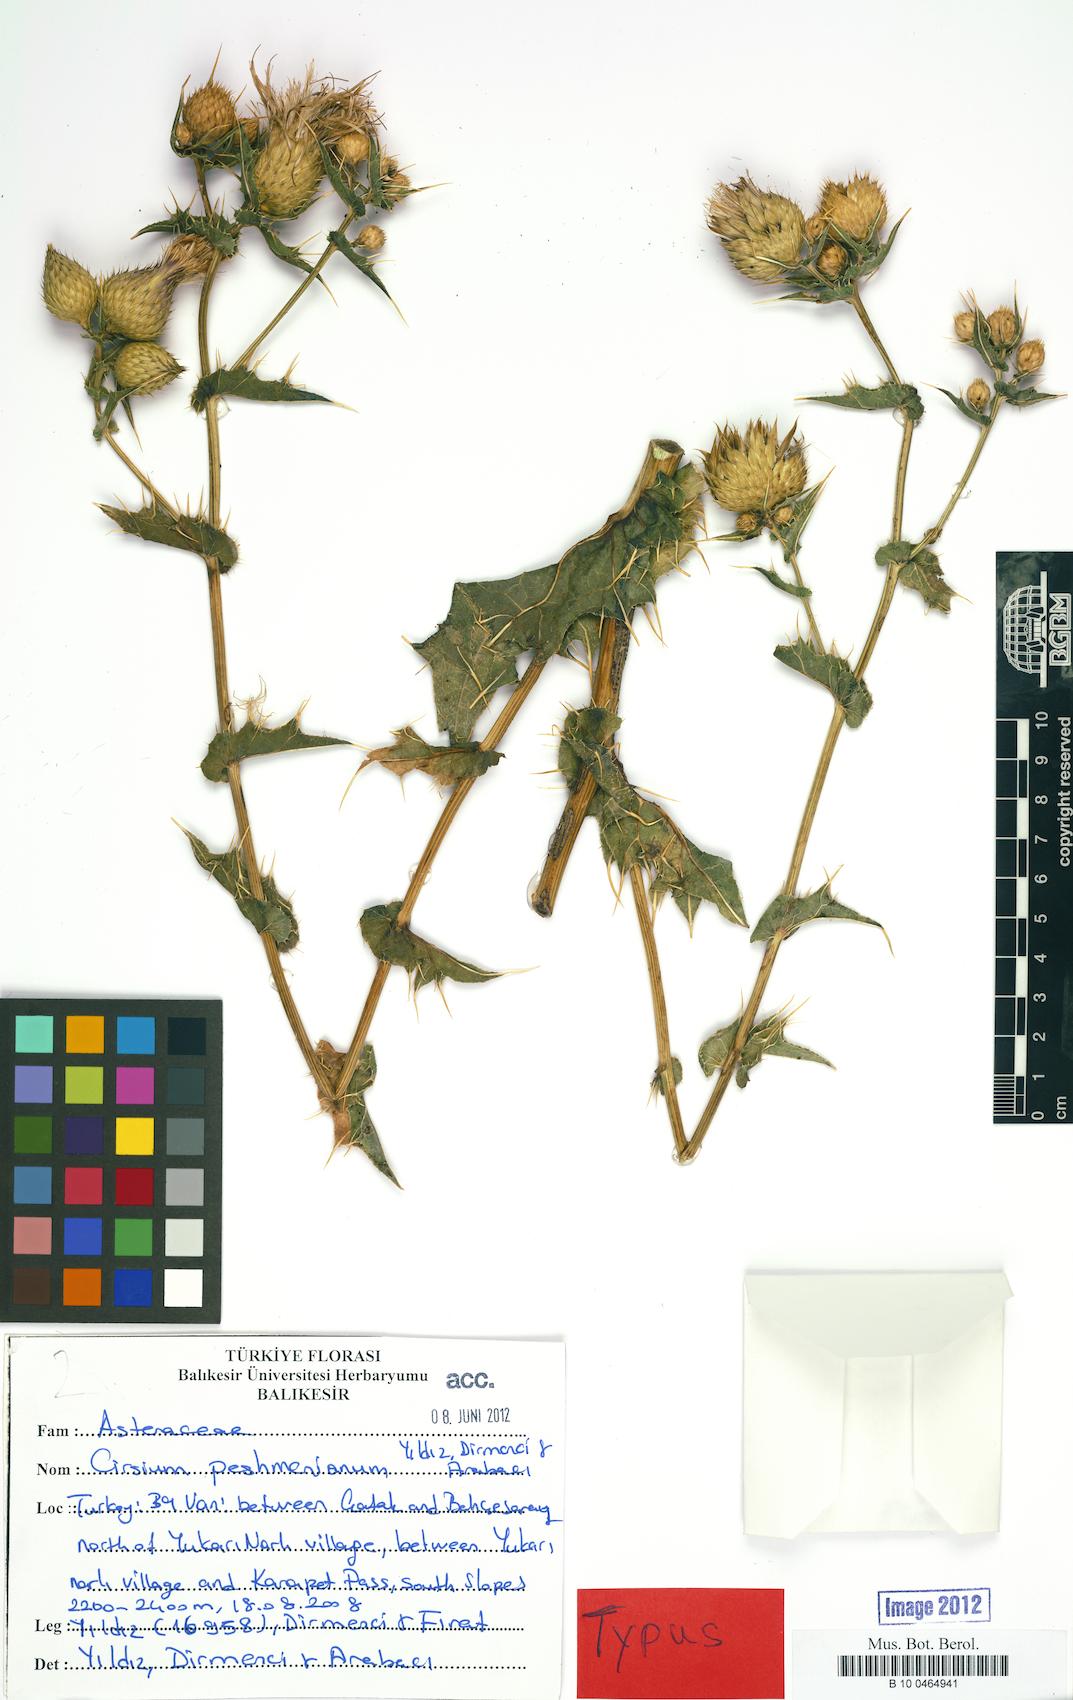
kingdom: Plantae
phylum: Tracheophyta
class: Magnoliopsida
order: Asterales
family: Asteraceae
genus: Lophiolepis
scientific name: Lophiolepis peshmeniana
